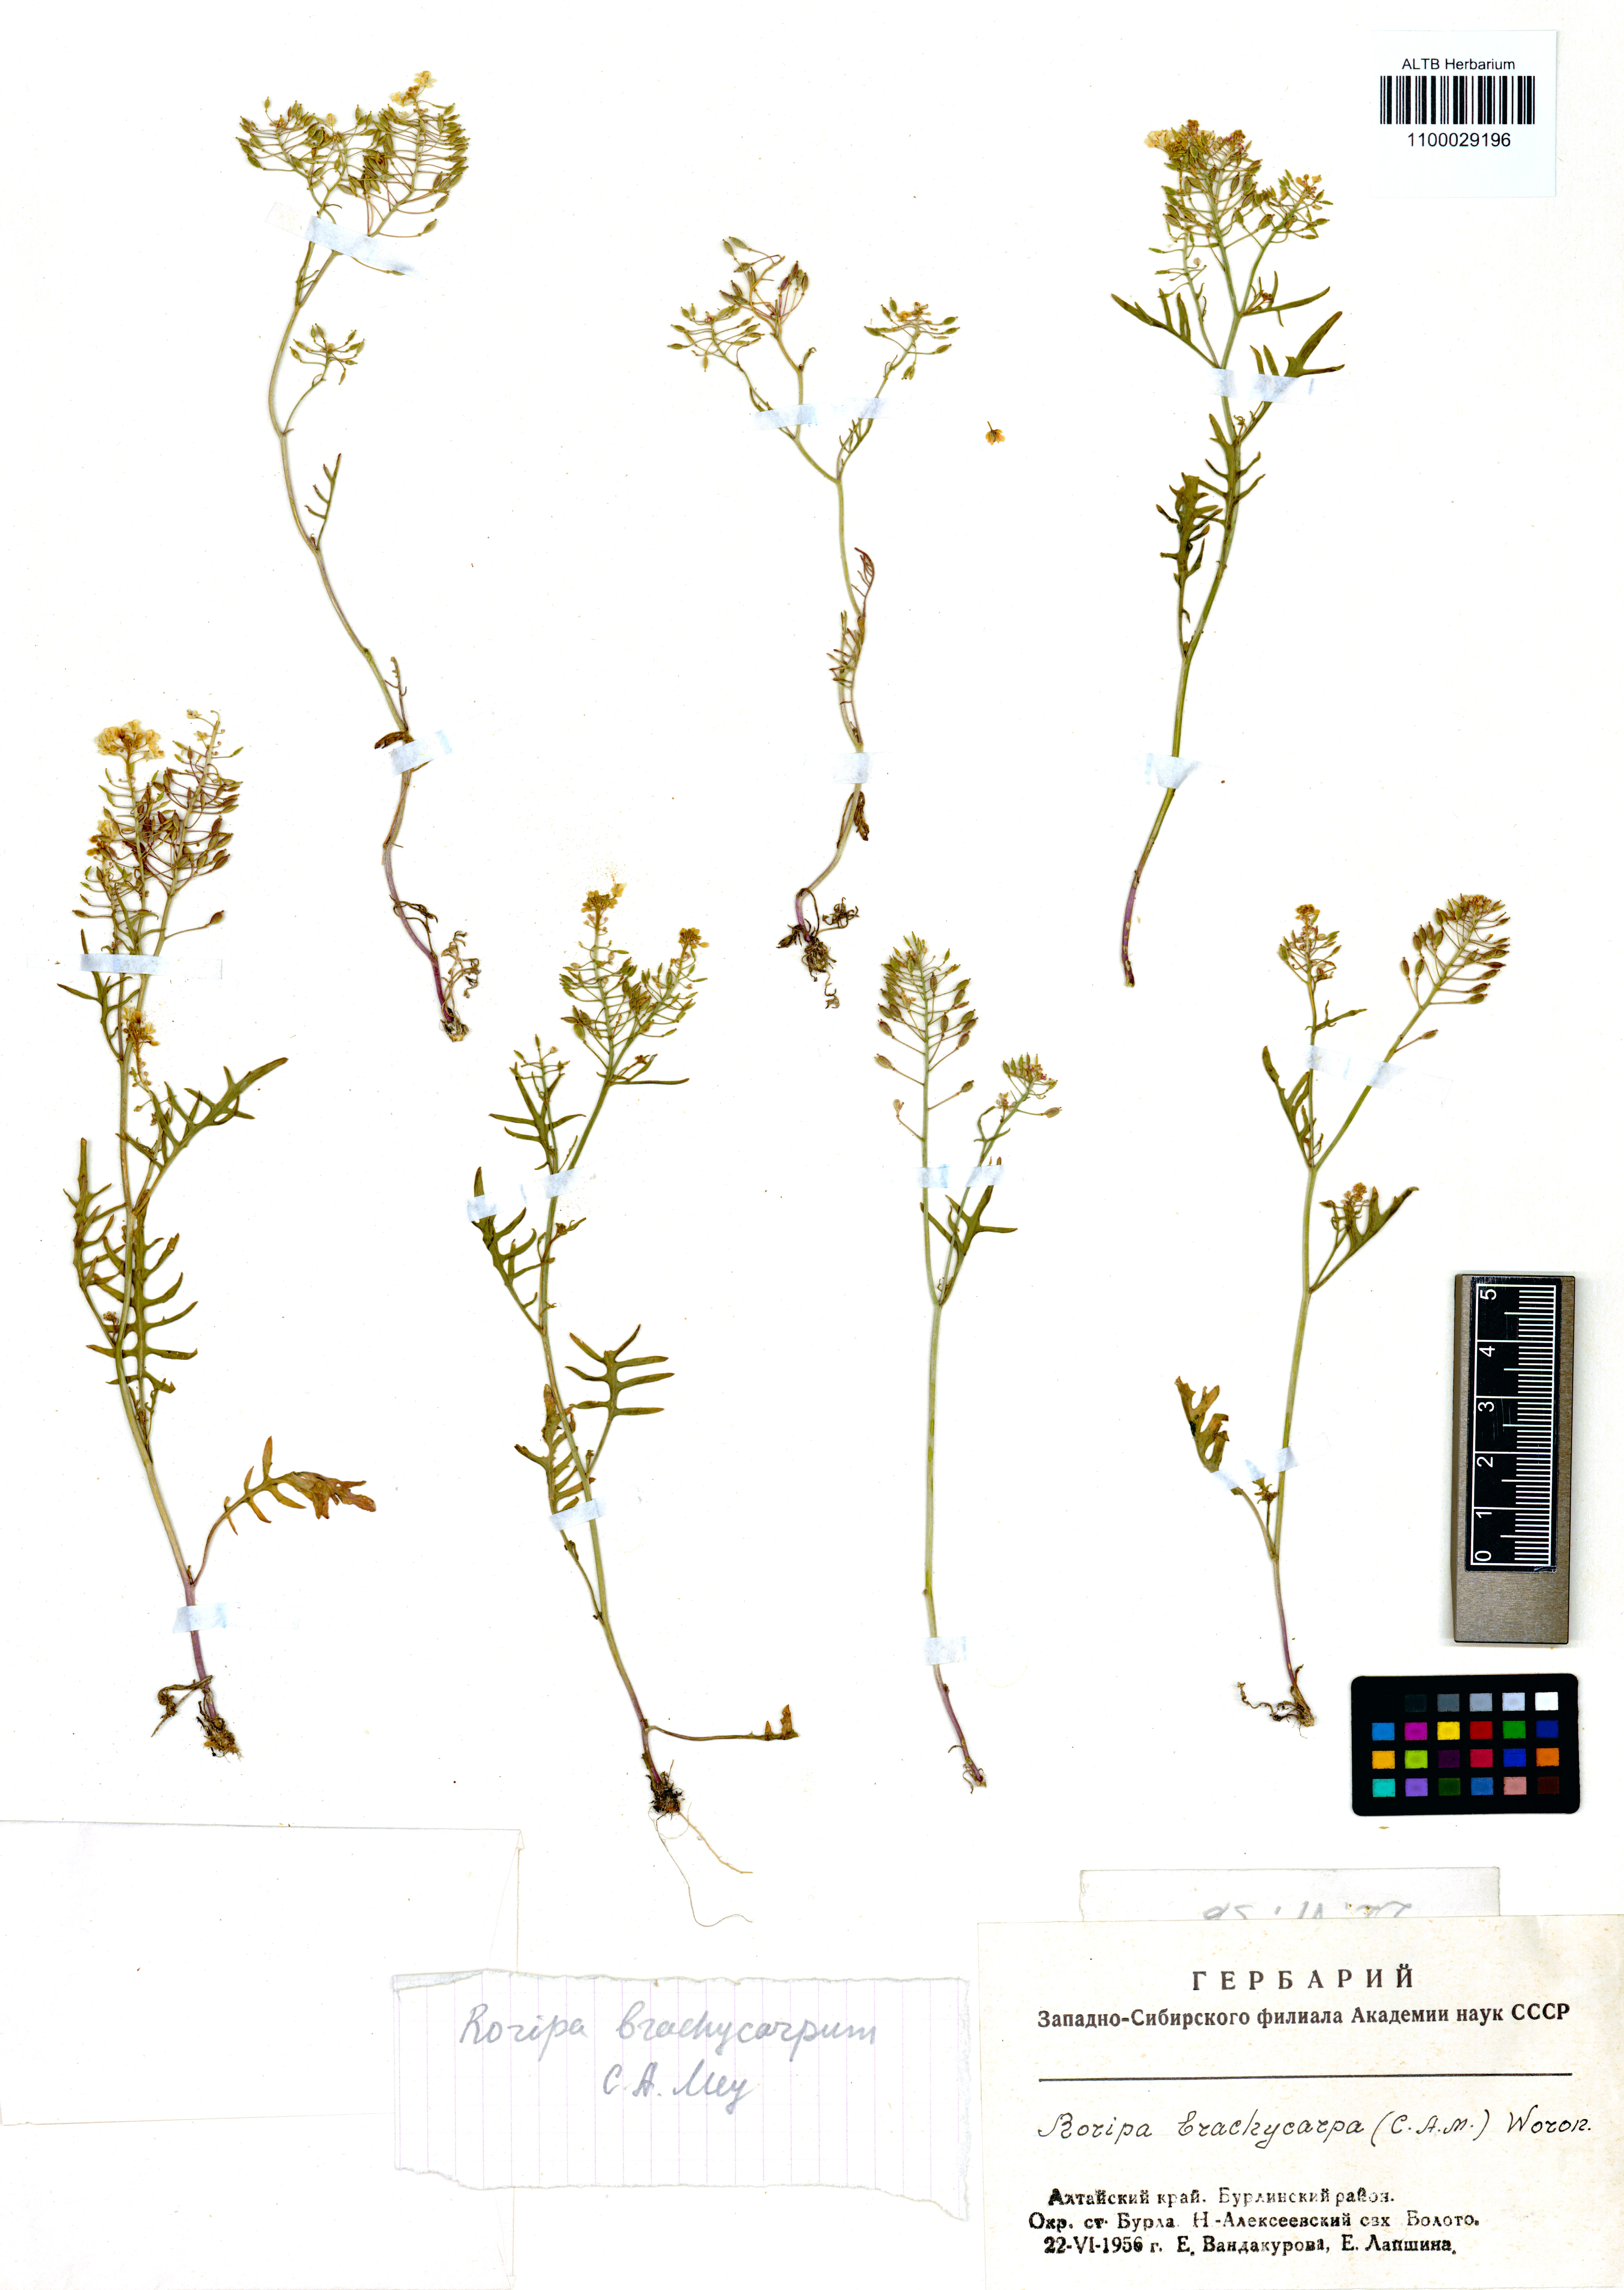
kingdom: Plantae
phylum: Tracheophyta
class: Magnoliopsida
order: Brassicales
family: Brassicaceae
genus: Rorippa
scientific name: Rorippa brachycarpa
